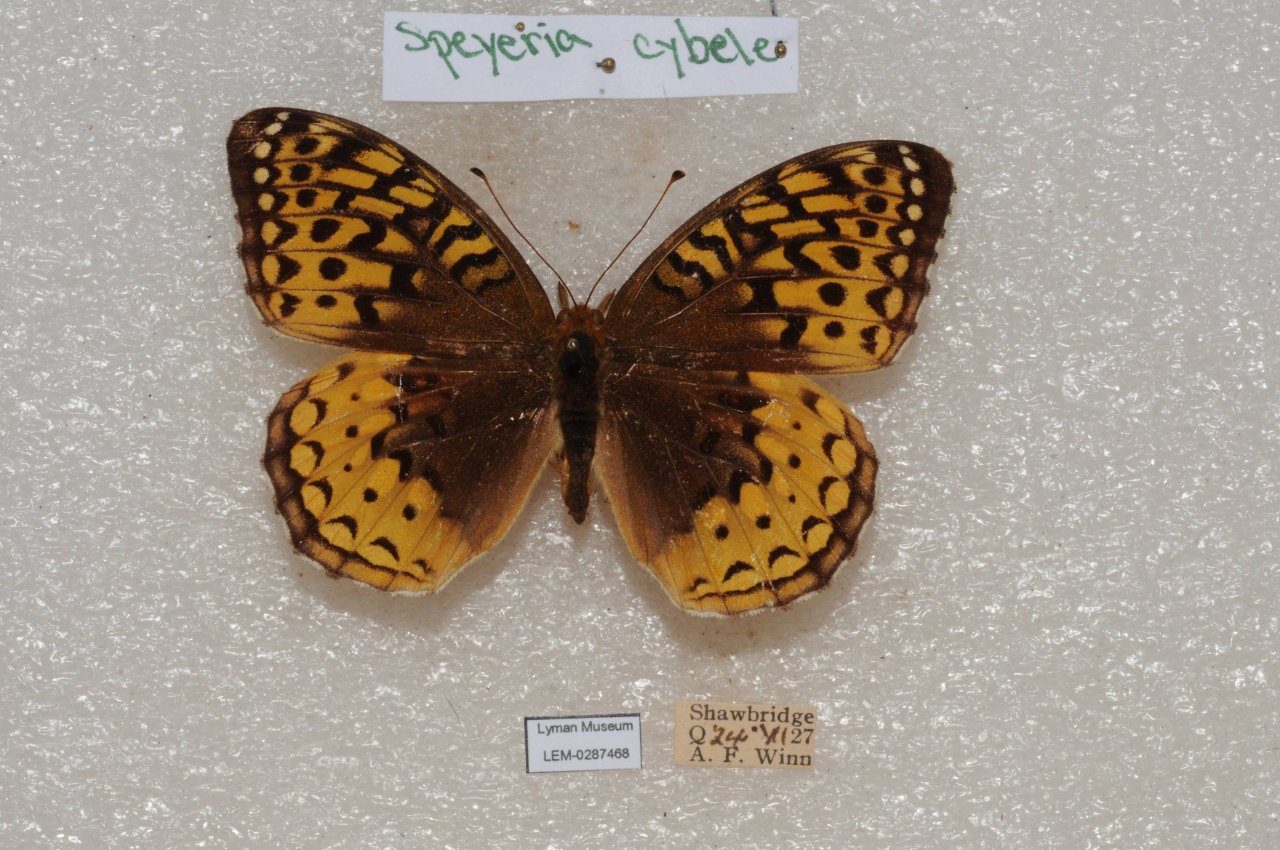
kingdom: Animalia
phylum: Arthropoda
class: Insecta
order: Lepidoptera
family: Nymphalidae
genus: Speyeria
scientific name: Speyeria cybele
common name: Great Spangled Fritillary
